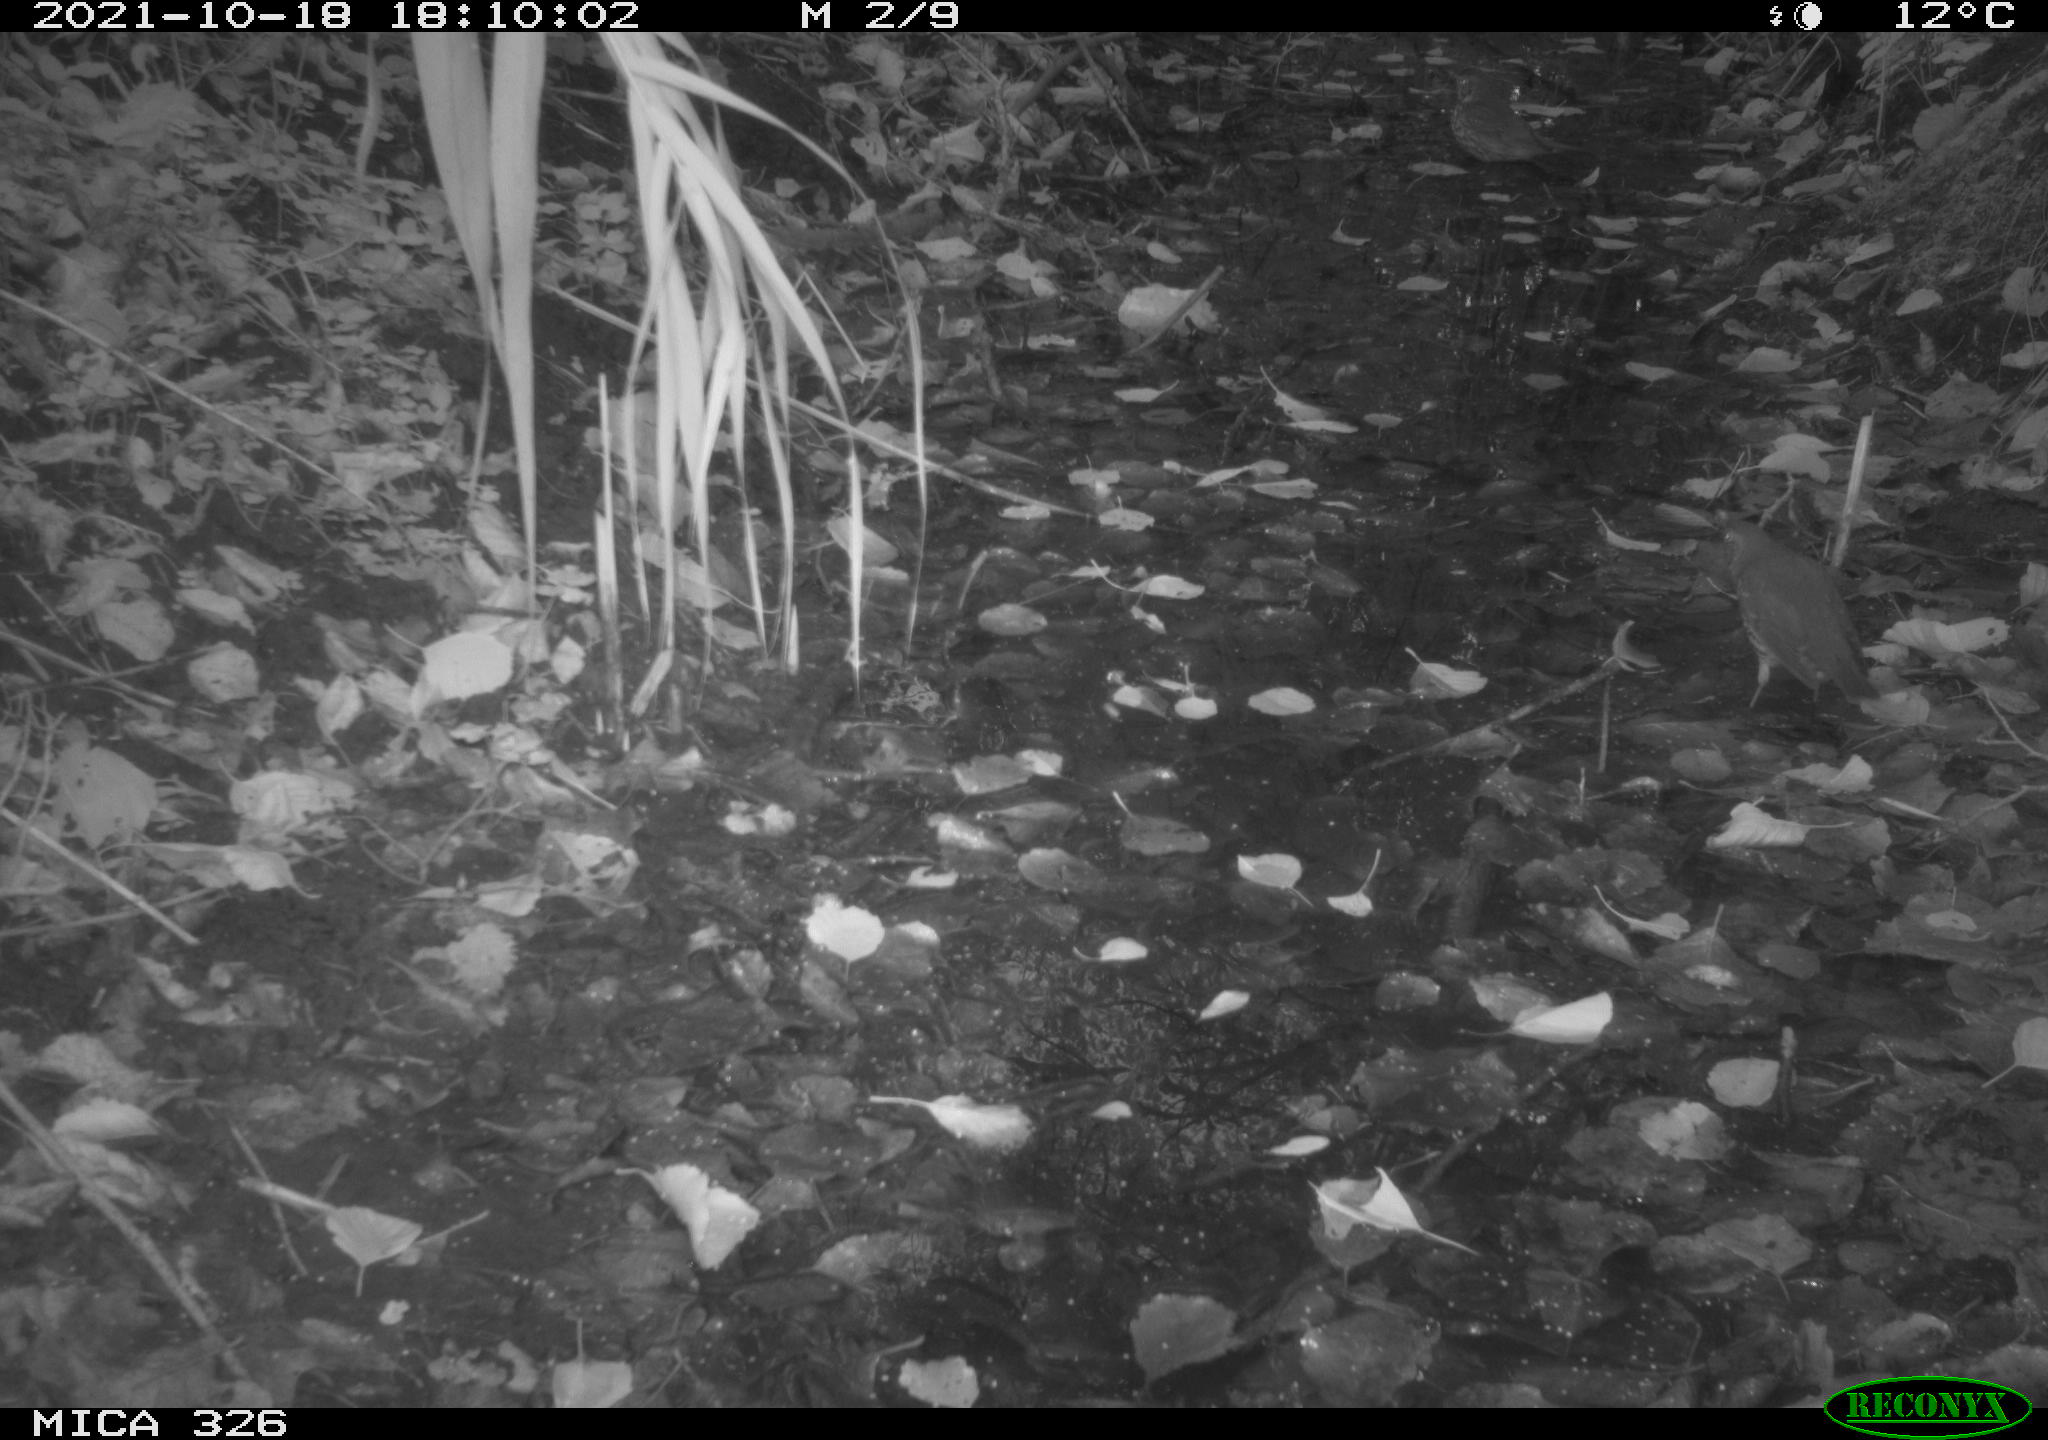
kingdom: Animalia
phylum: Chordata
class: Aves
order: Passeriformes
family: Turdidae
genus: Turdus
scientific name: Turdus philomelos
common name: Song thrush
